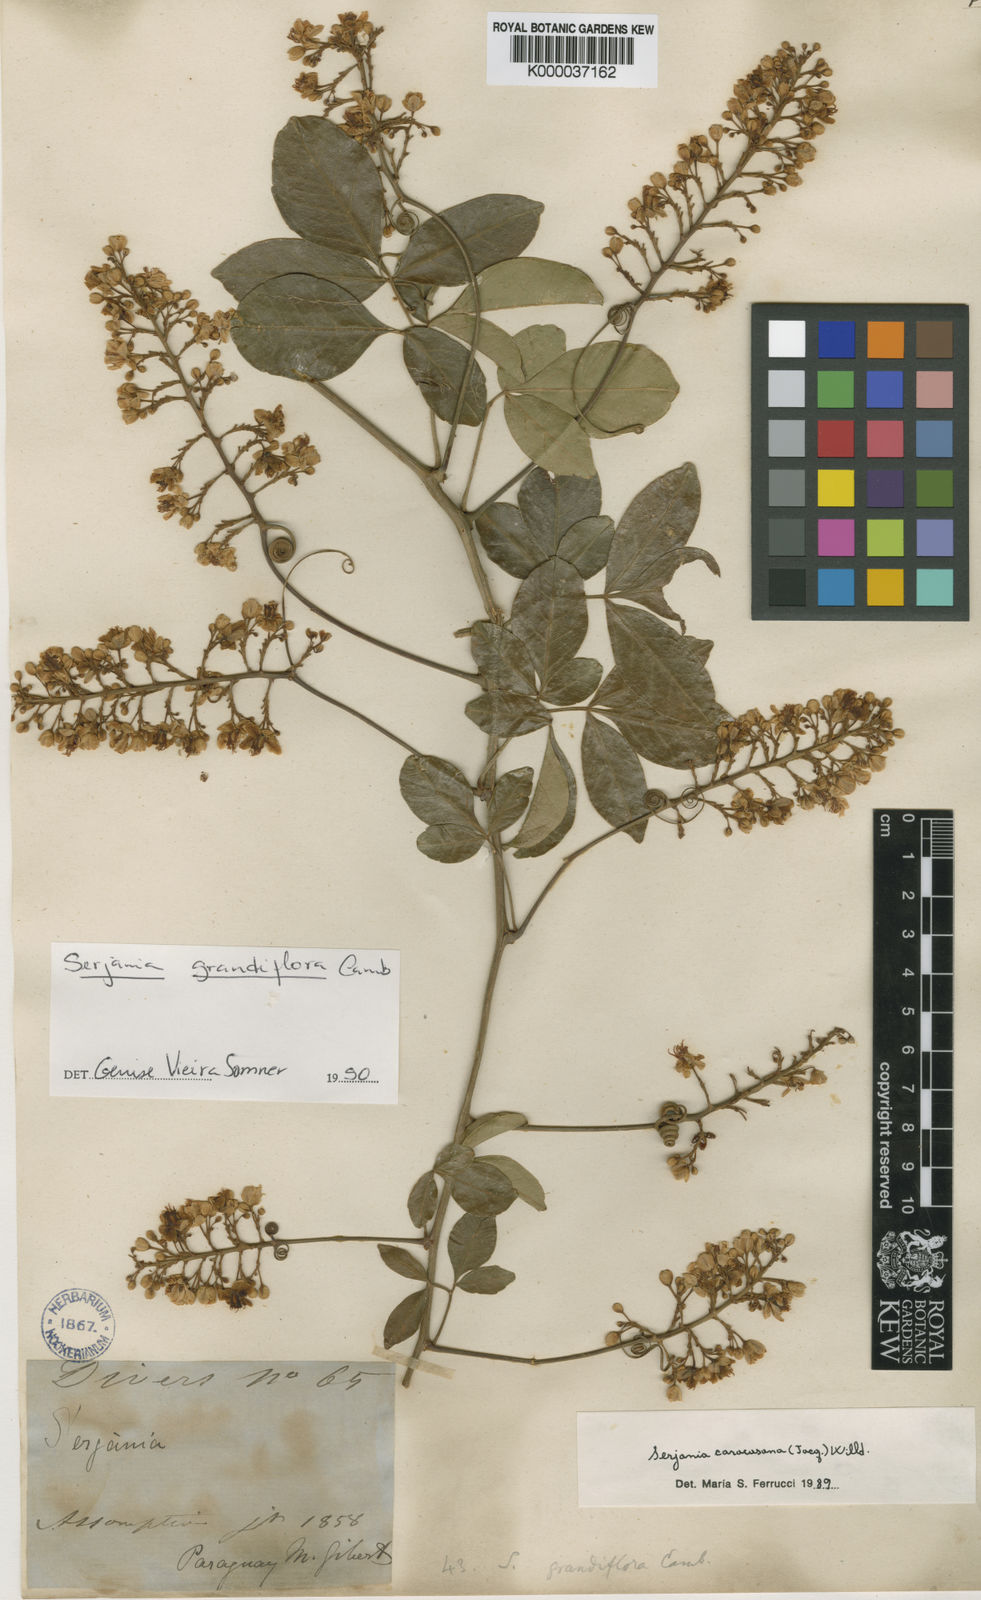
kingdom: Plantae
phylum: Tracheophyta
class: Magnoliopsida
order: Sapindales
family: Sapindaceae
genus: Serjania
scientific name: Serjania caracasana
